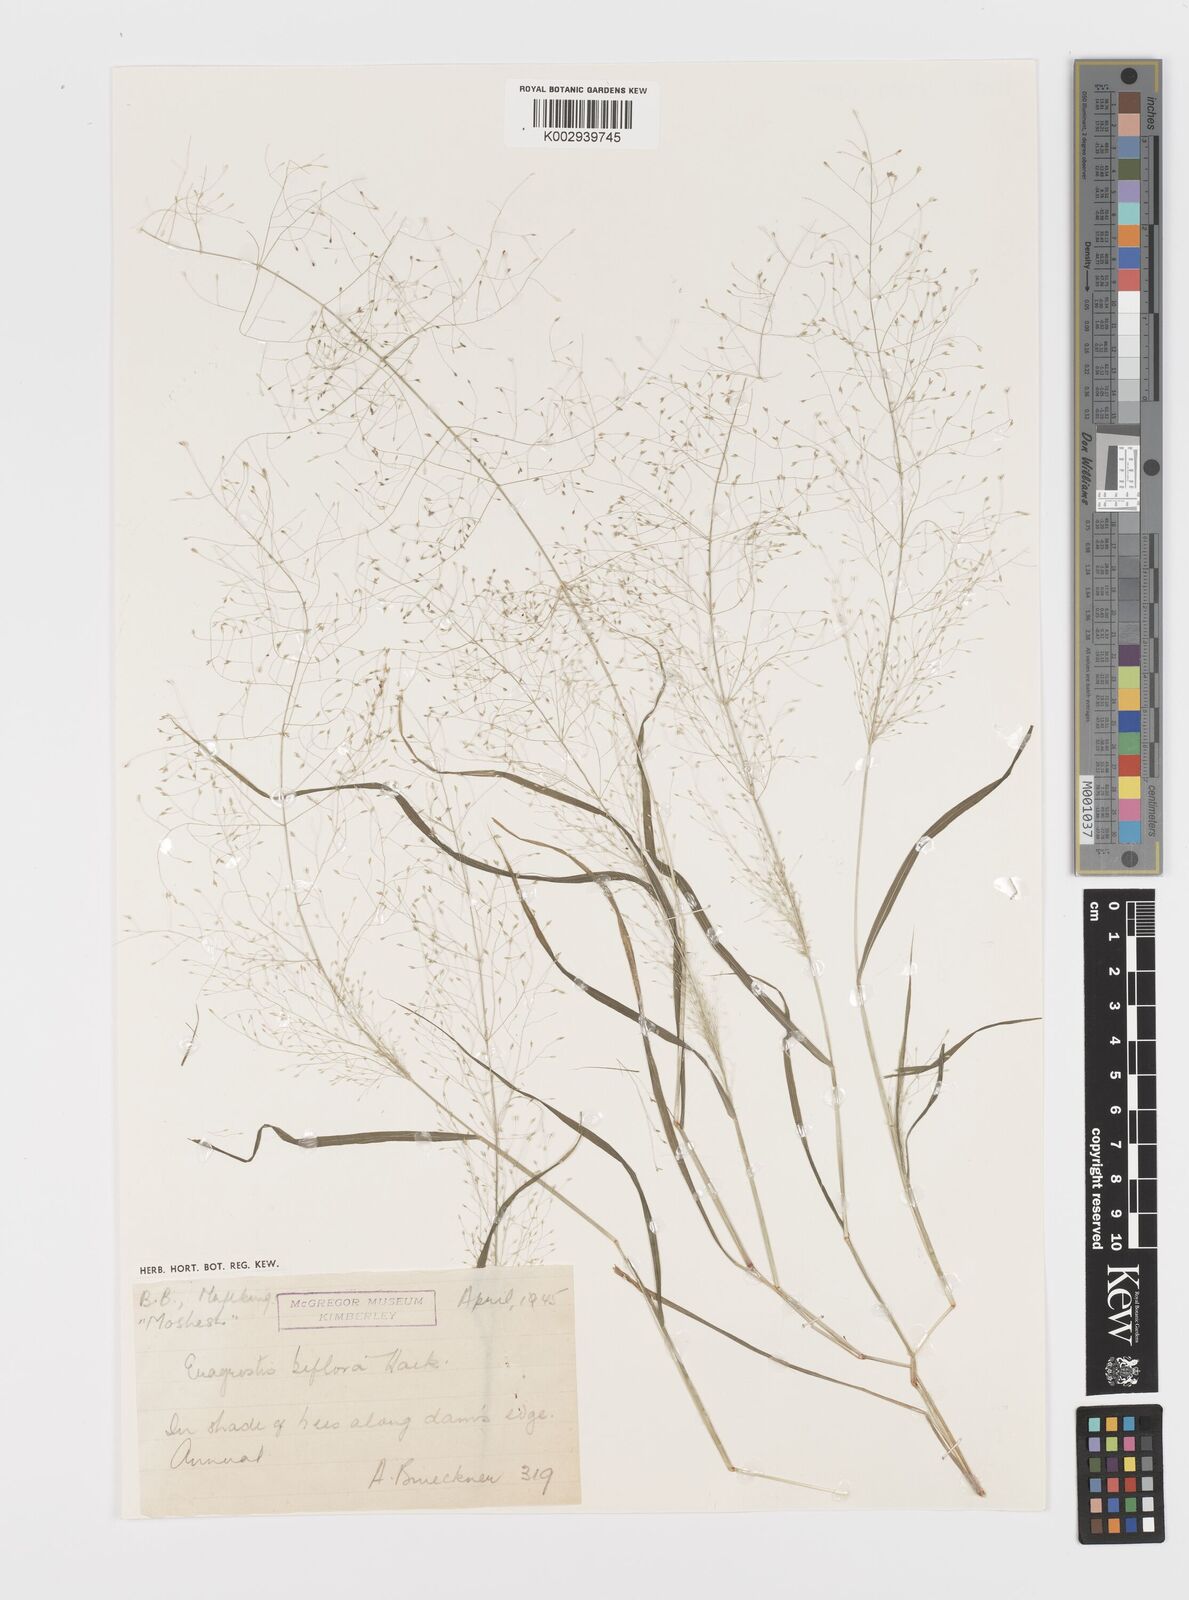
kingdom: Plantae
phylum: Tracheophyta
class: Liliopsida
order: Poales
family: Poaceae
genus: Eragrostis
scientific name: Eragrostis biflora
